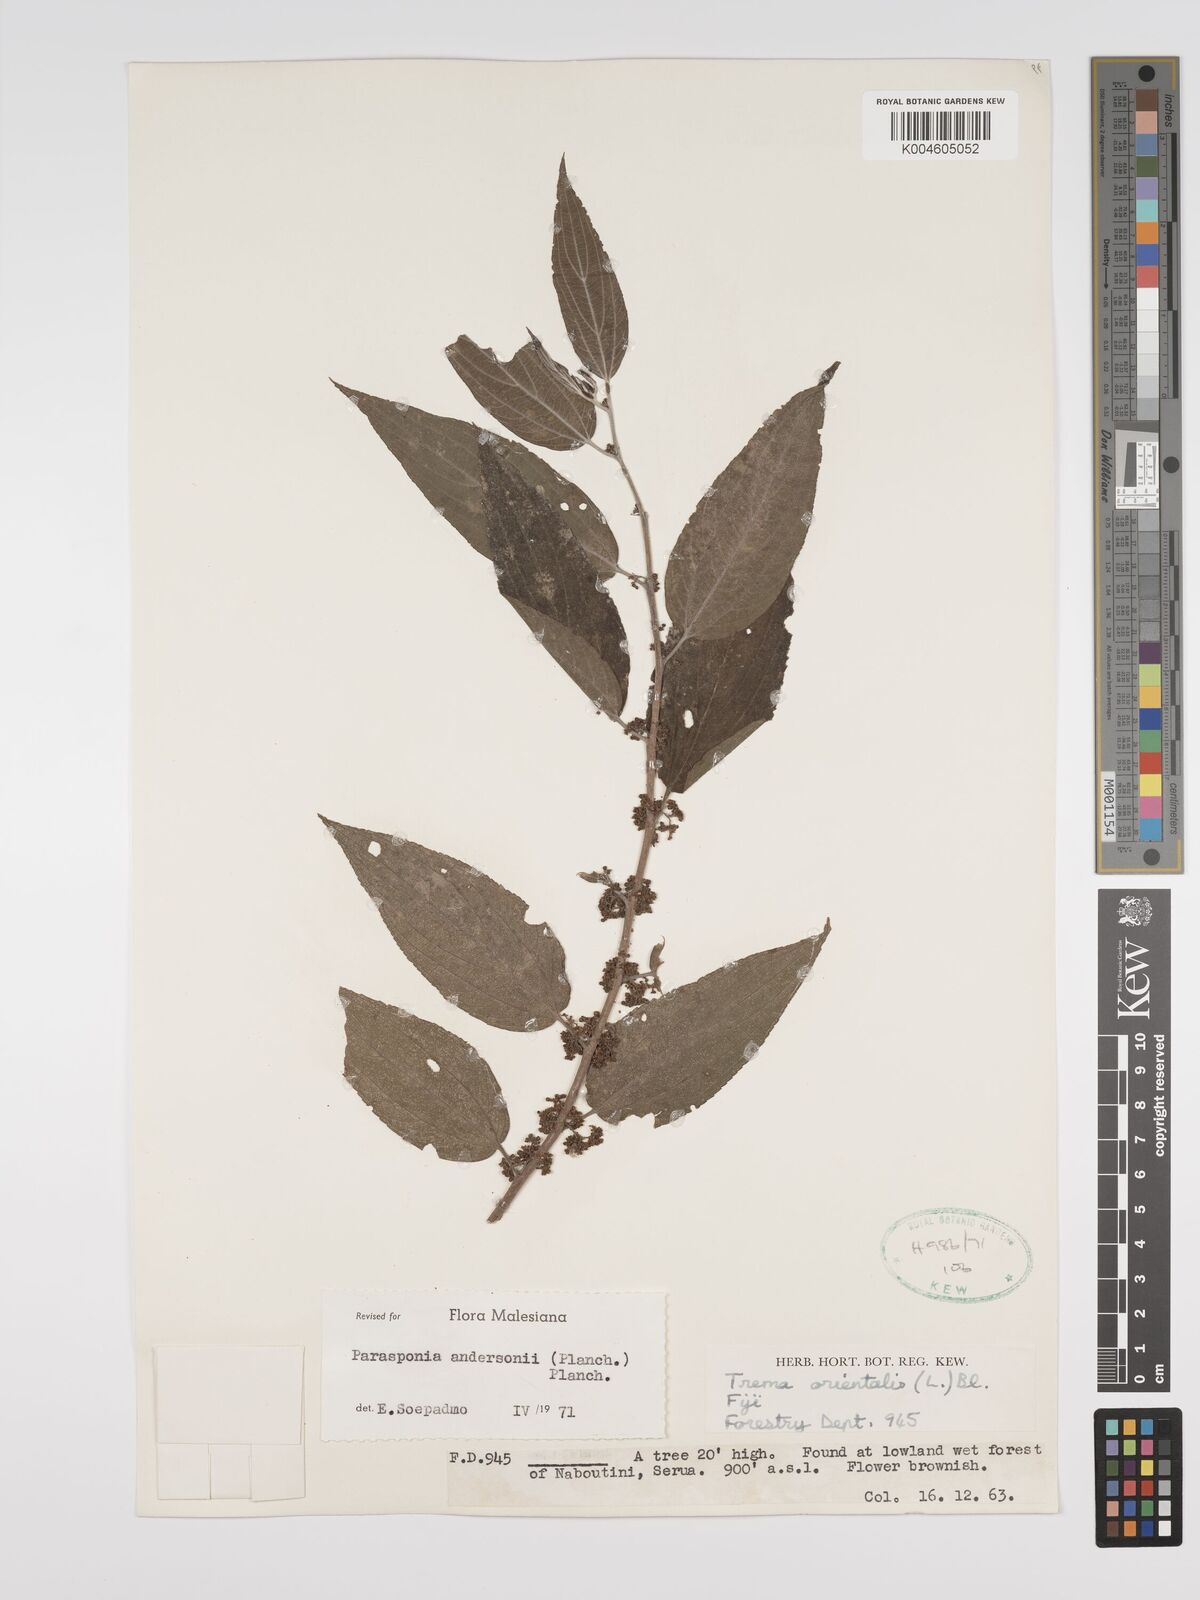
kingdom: Plantae
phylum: Tracheophyta
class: Magnoliopsida
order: Rosales
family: Cannabaceae
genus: Trema
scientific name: Trema andersonii
